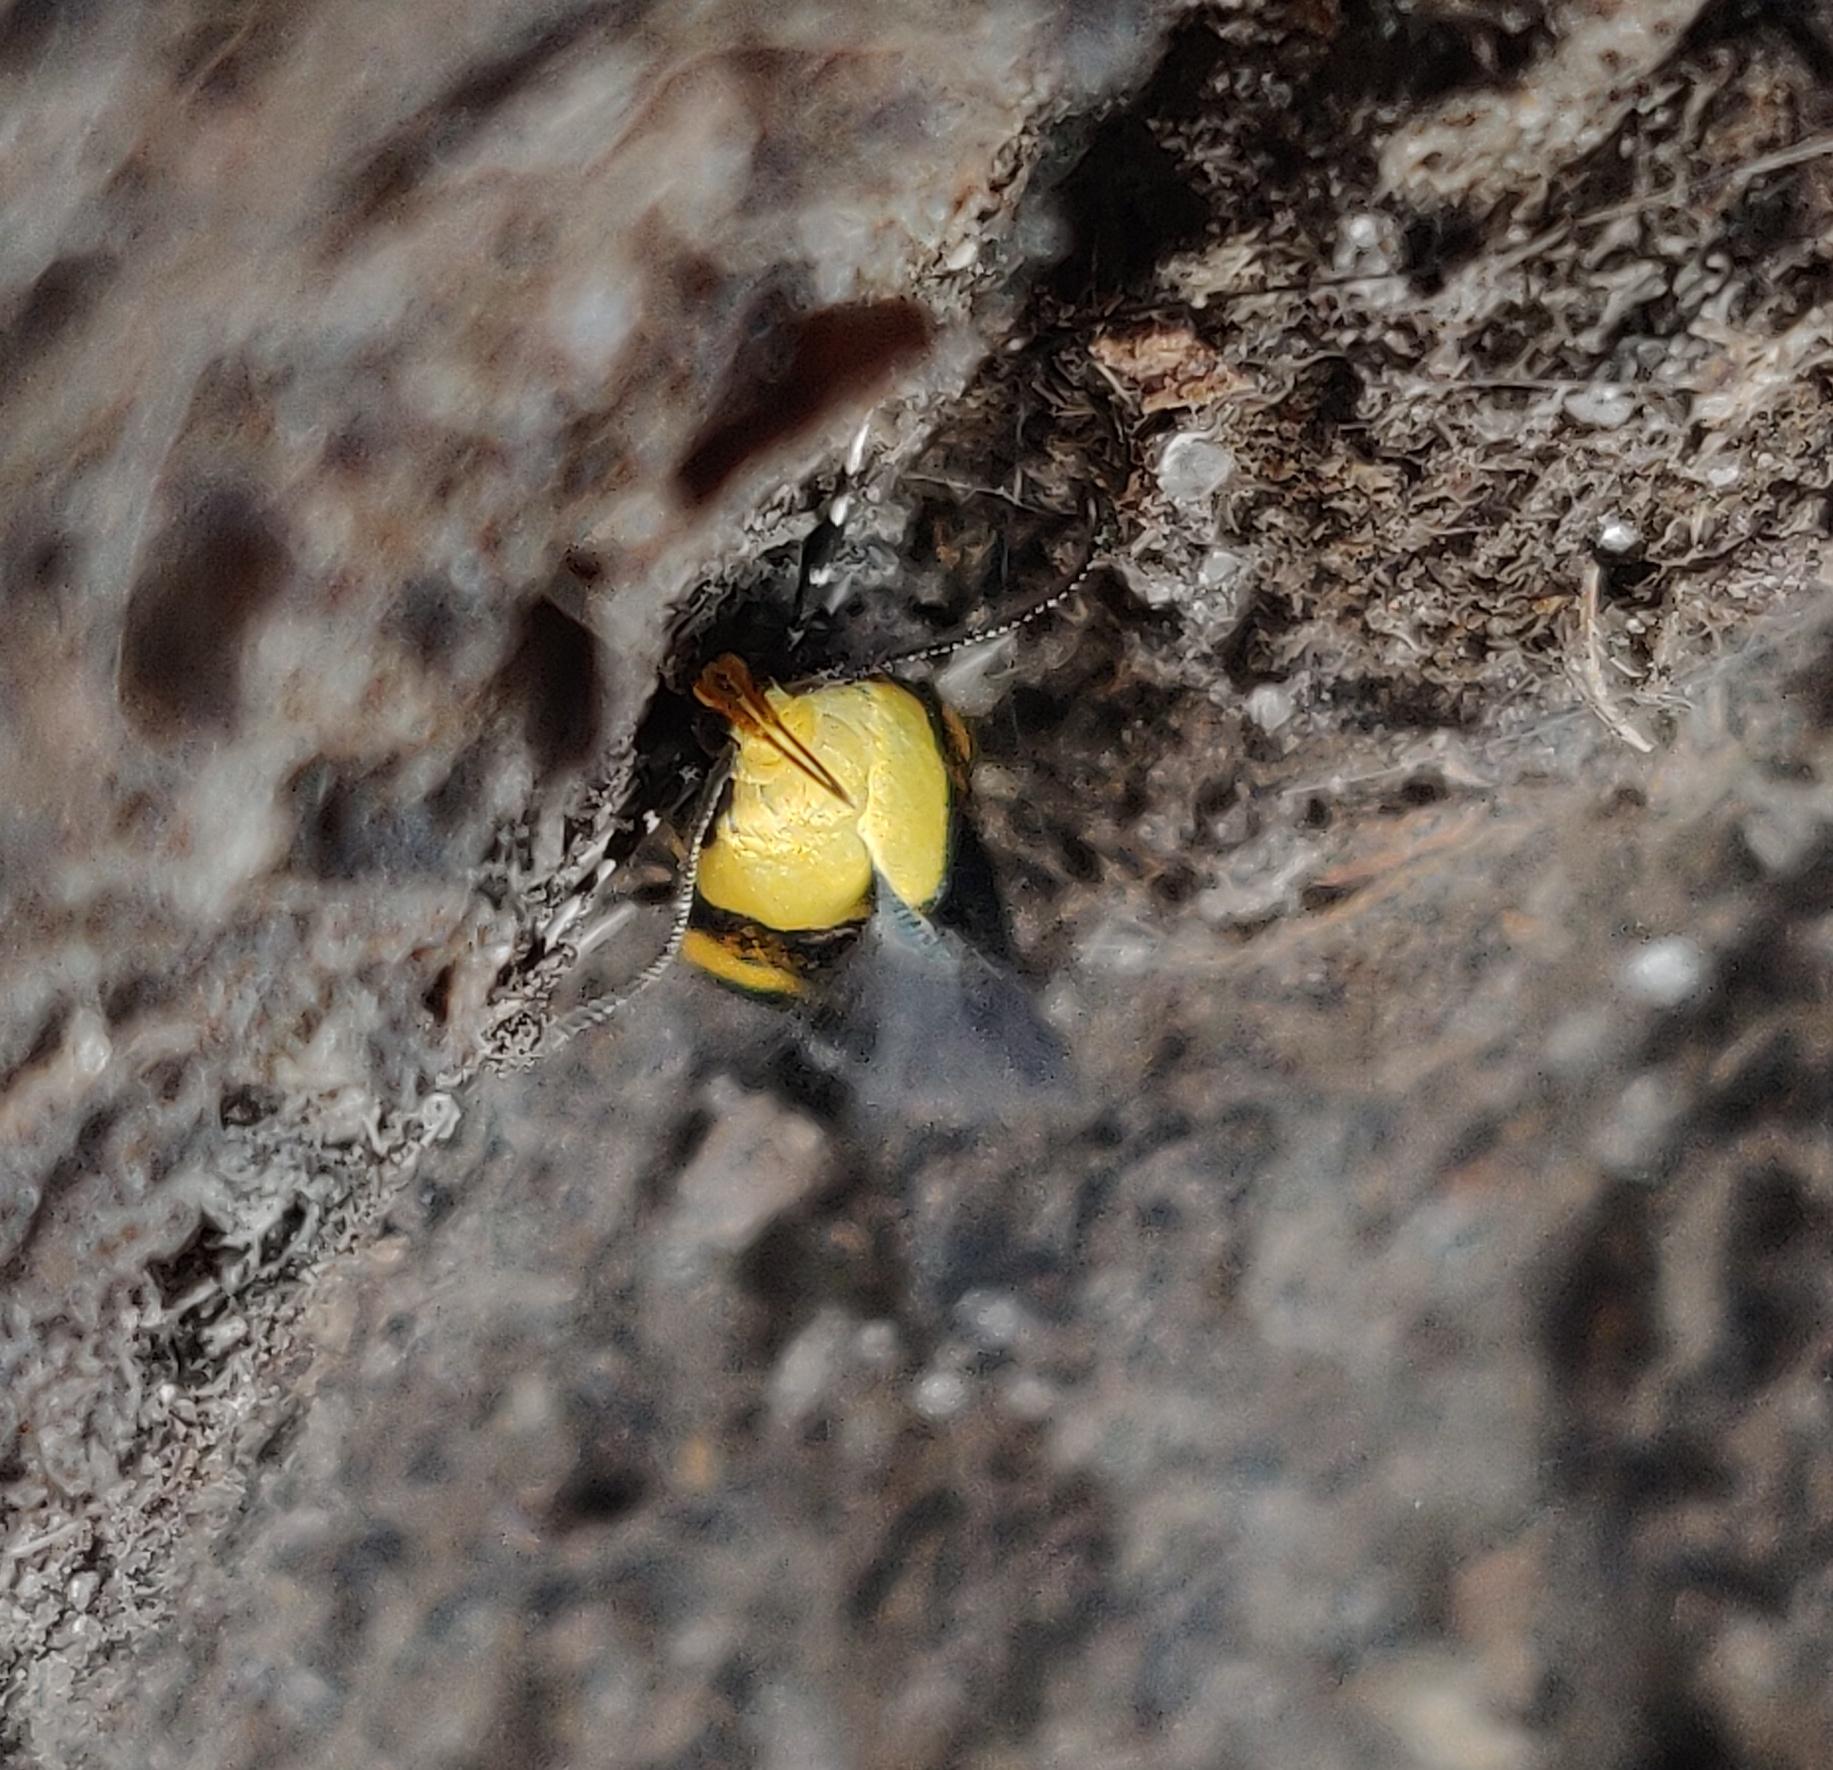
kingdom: Animalia
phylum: Arthropoda
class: Insecta
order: Lepidoptera
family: Oecophoridae
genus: Oecophora
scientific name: Oecophora bractella
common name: Tofarvet prydvinge
